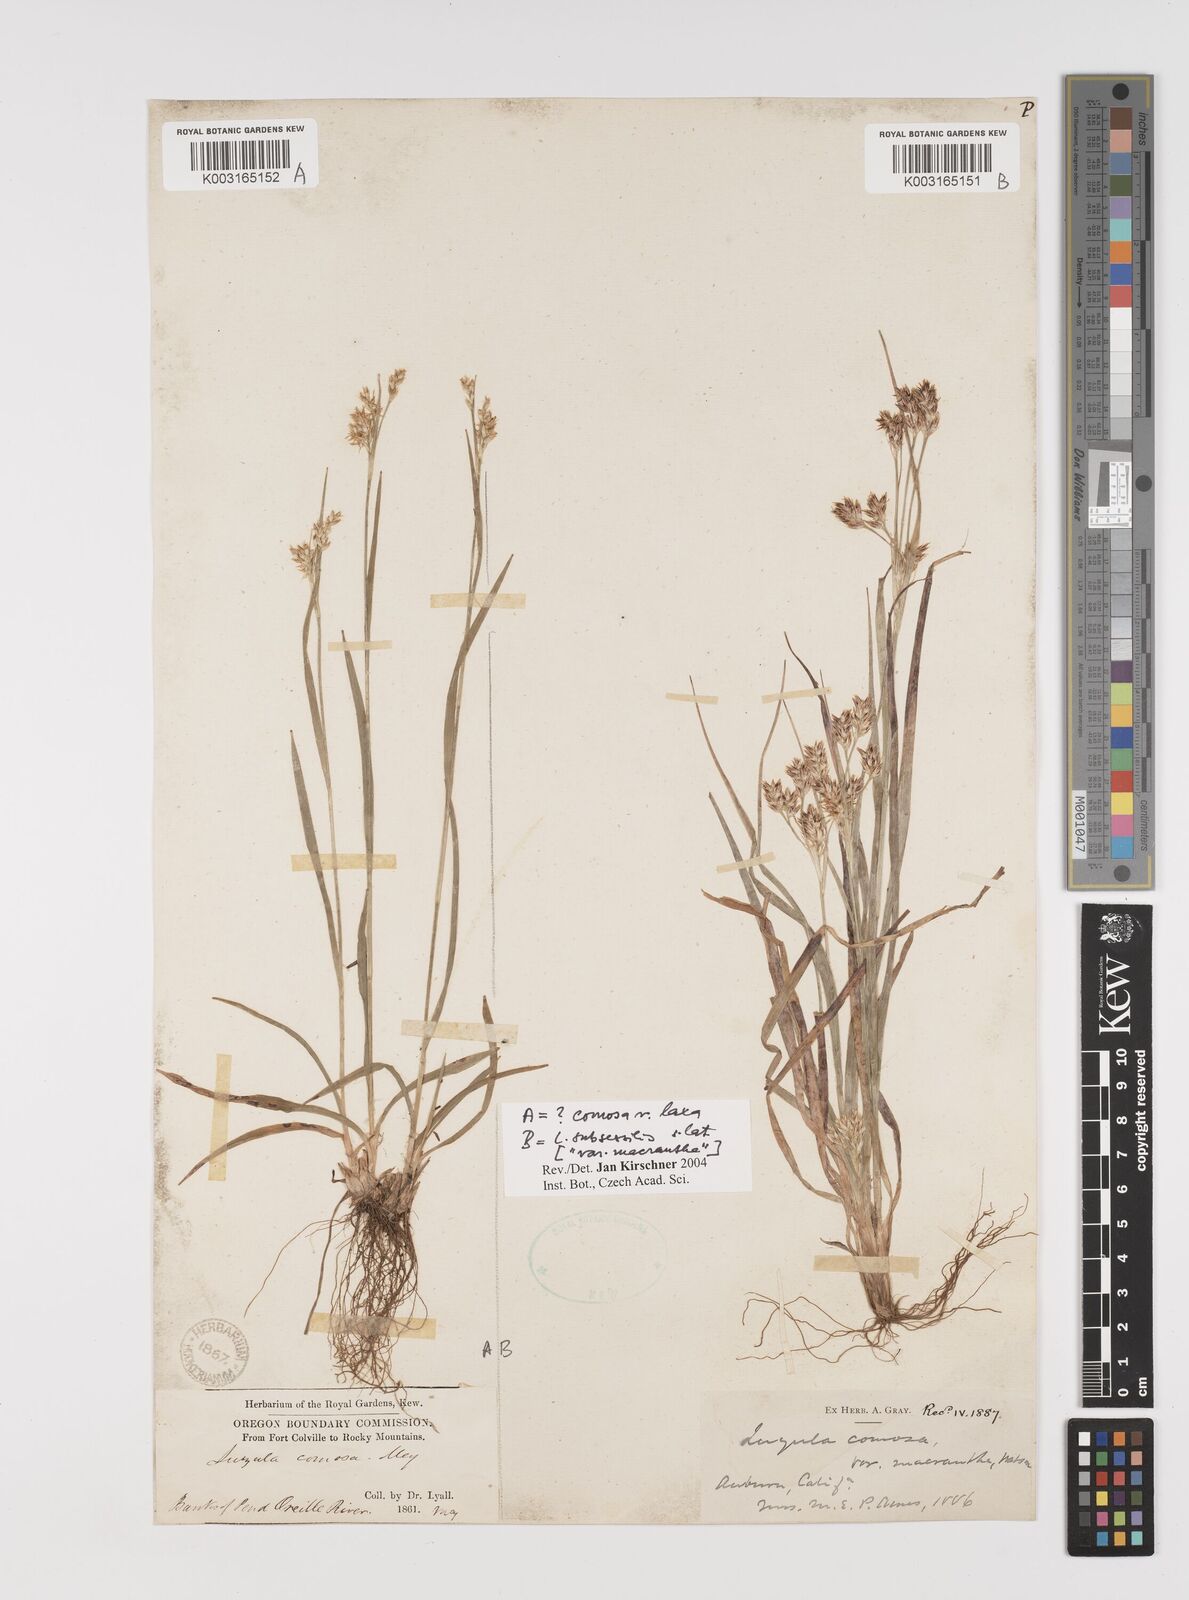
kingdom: Plantae
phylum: Tracheophyta
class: Liliopsida
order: Poales
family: Juncaceae
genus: Luzula
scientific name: Luzula macrantha
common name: Large-anthered woodrush
